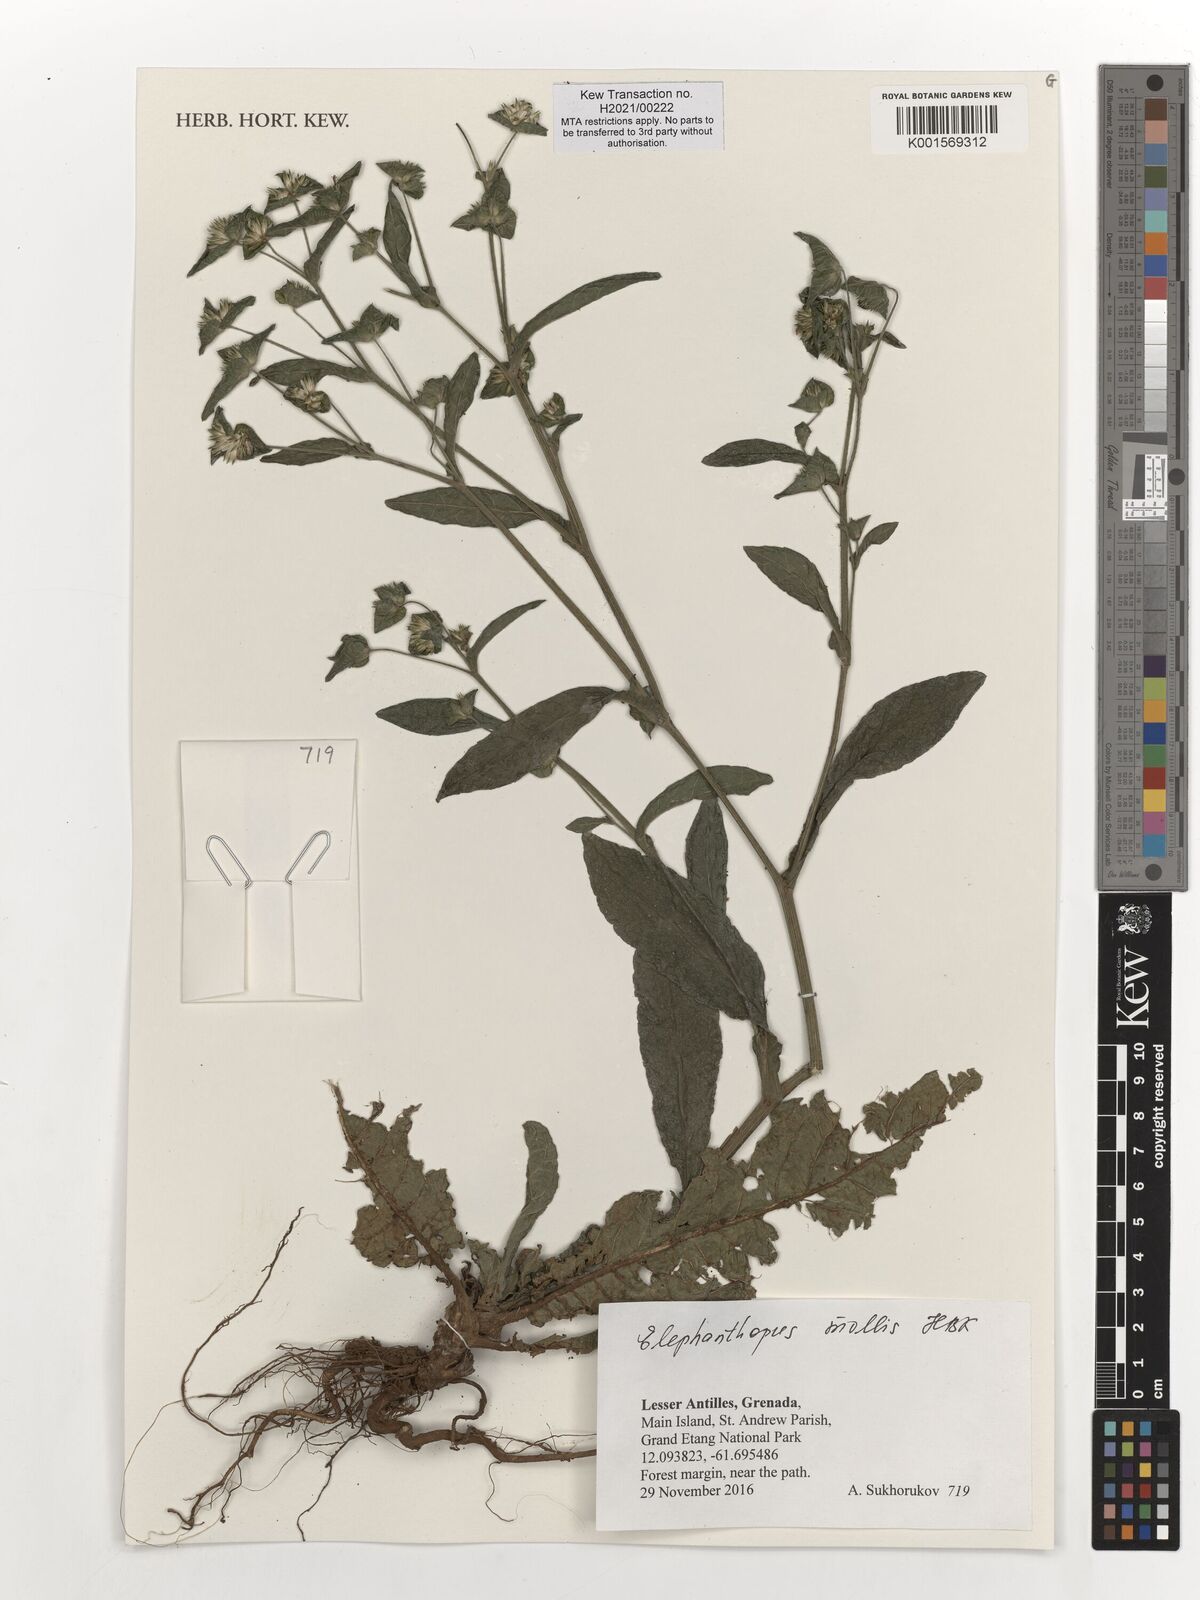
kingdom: Plantae
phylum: Tracheophyta
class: Magnoliopsida
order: Asterales
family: Asteraceae
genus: Elephantopus
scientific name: Elephantopus mollis
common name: Soft elephantsfoot
